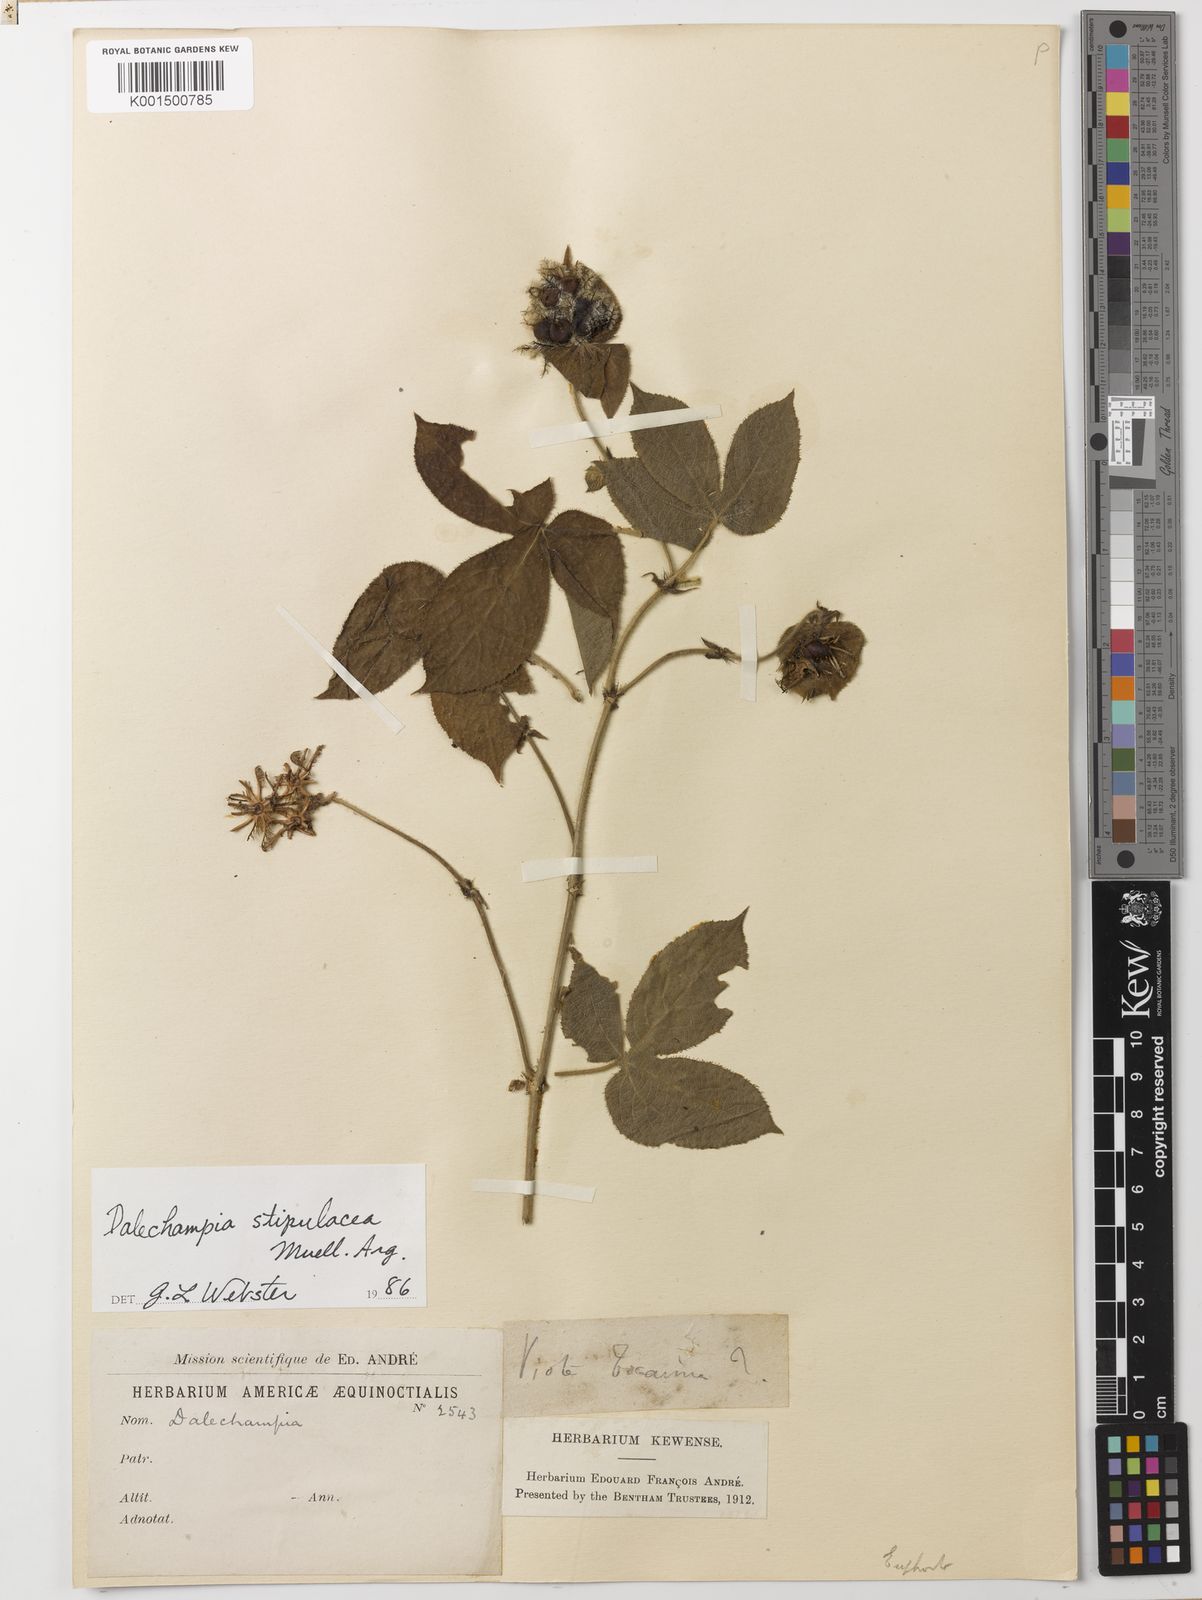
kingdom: Plantae
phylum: Tracheophyta
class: Magnoliopsida
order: Malpighiales
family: Euphorbiaceae
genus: Dalechampia
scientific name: Dalechampia stipulacea
